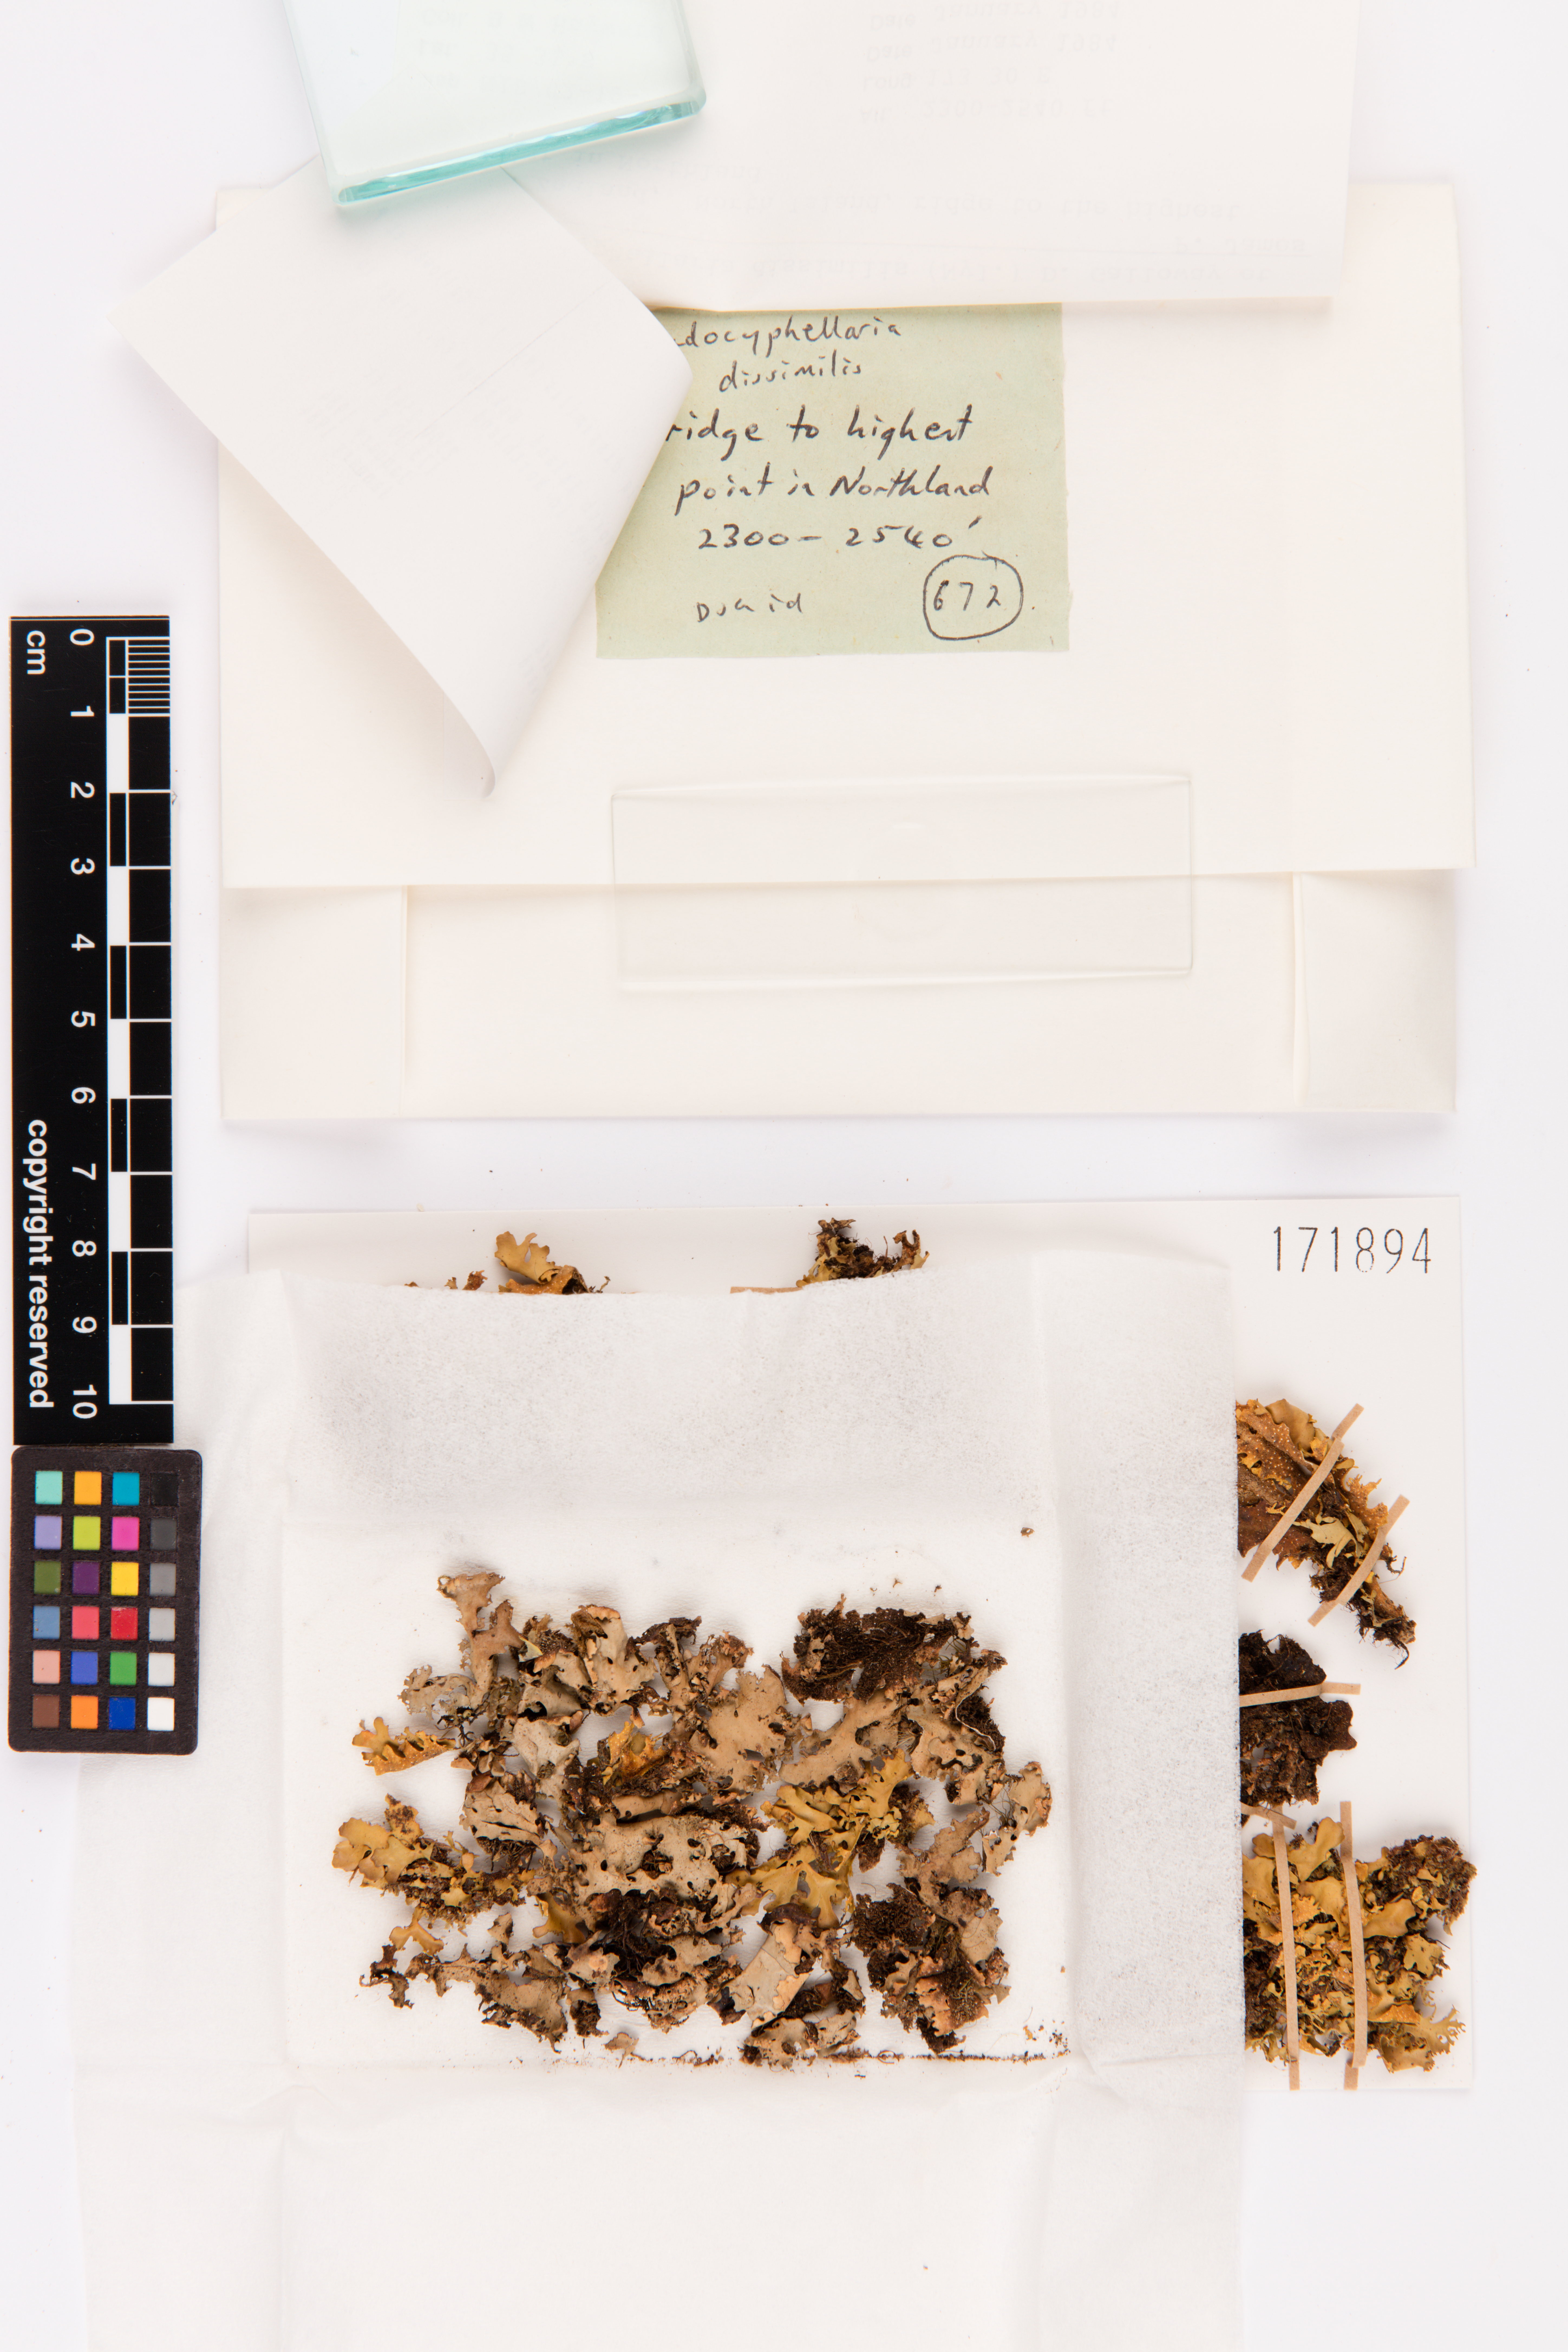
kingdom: Fungi
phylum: Ascomycota
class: Lecanoromycetes
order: Peltigerales
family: Lobariaceae
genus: Pseudocyphellaria
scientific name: Pseudocyphellaria dissimilis
